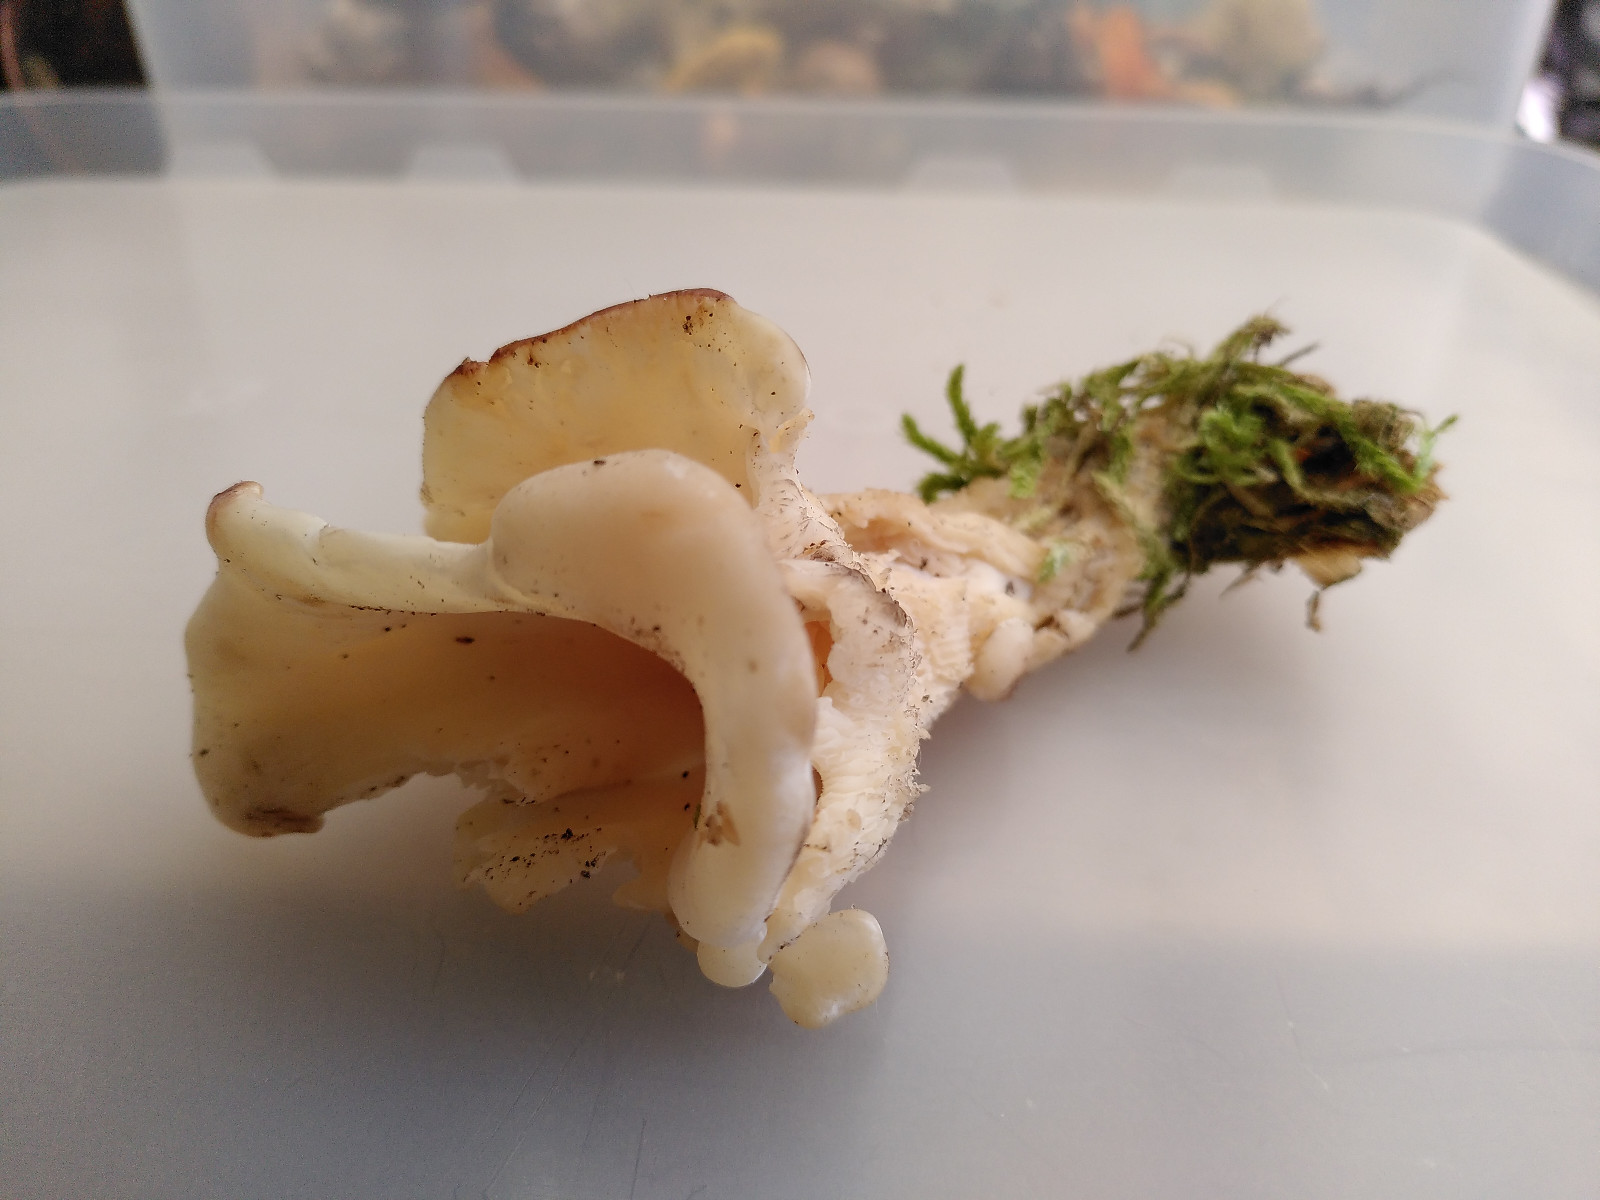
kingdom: Fungi
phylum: Basidiomycota
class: Agaricomycetes
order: Agaricales
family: Marasmiaceae
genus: Pleurocybella
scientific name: Pleurocybella porrigens
